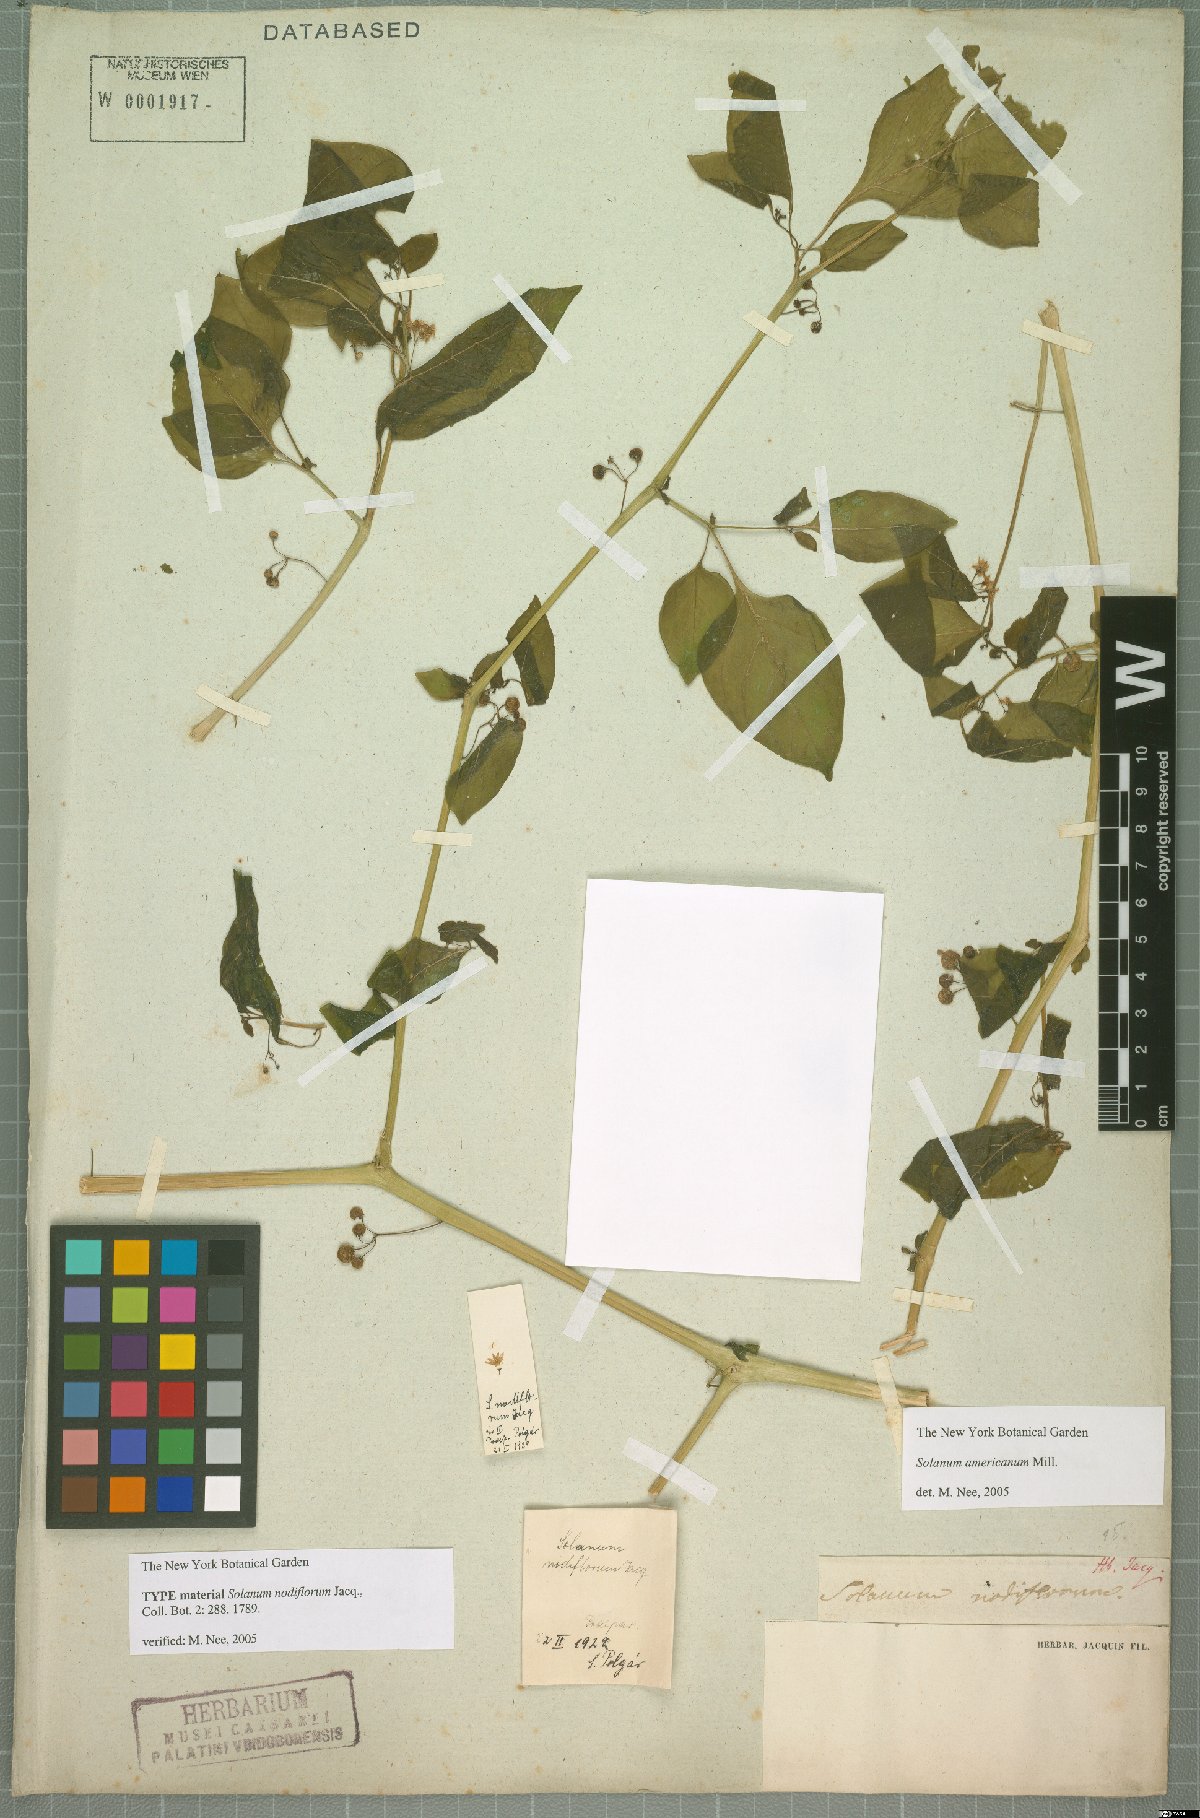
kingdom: Plantae
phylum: Tracheophyta
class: Magnoliopsida
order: Solanales
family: Solanaceae
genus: Solanum
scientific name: Solanum americanum
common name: American black nightshade
